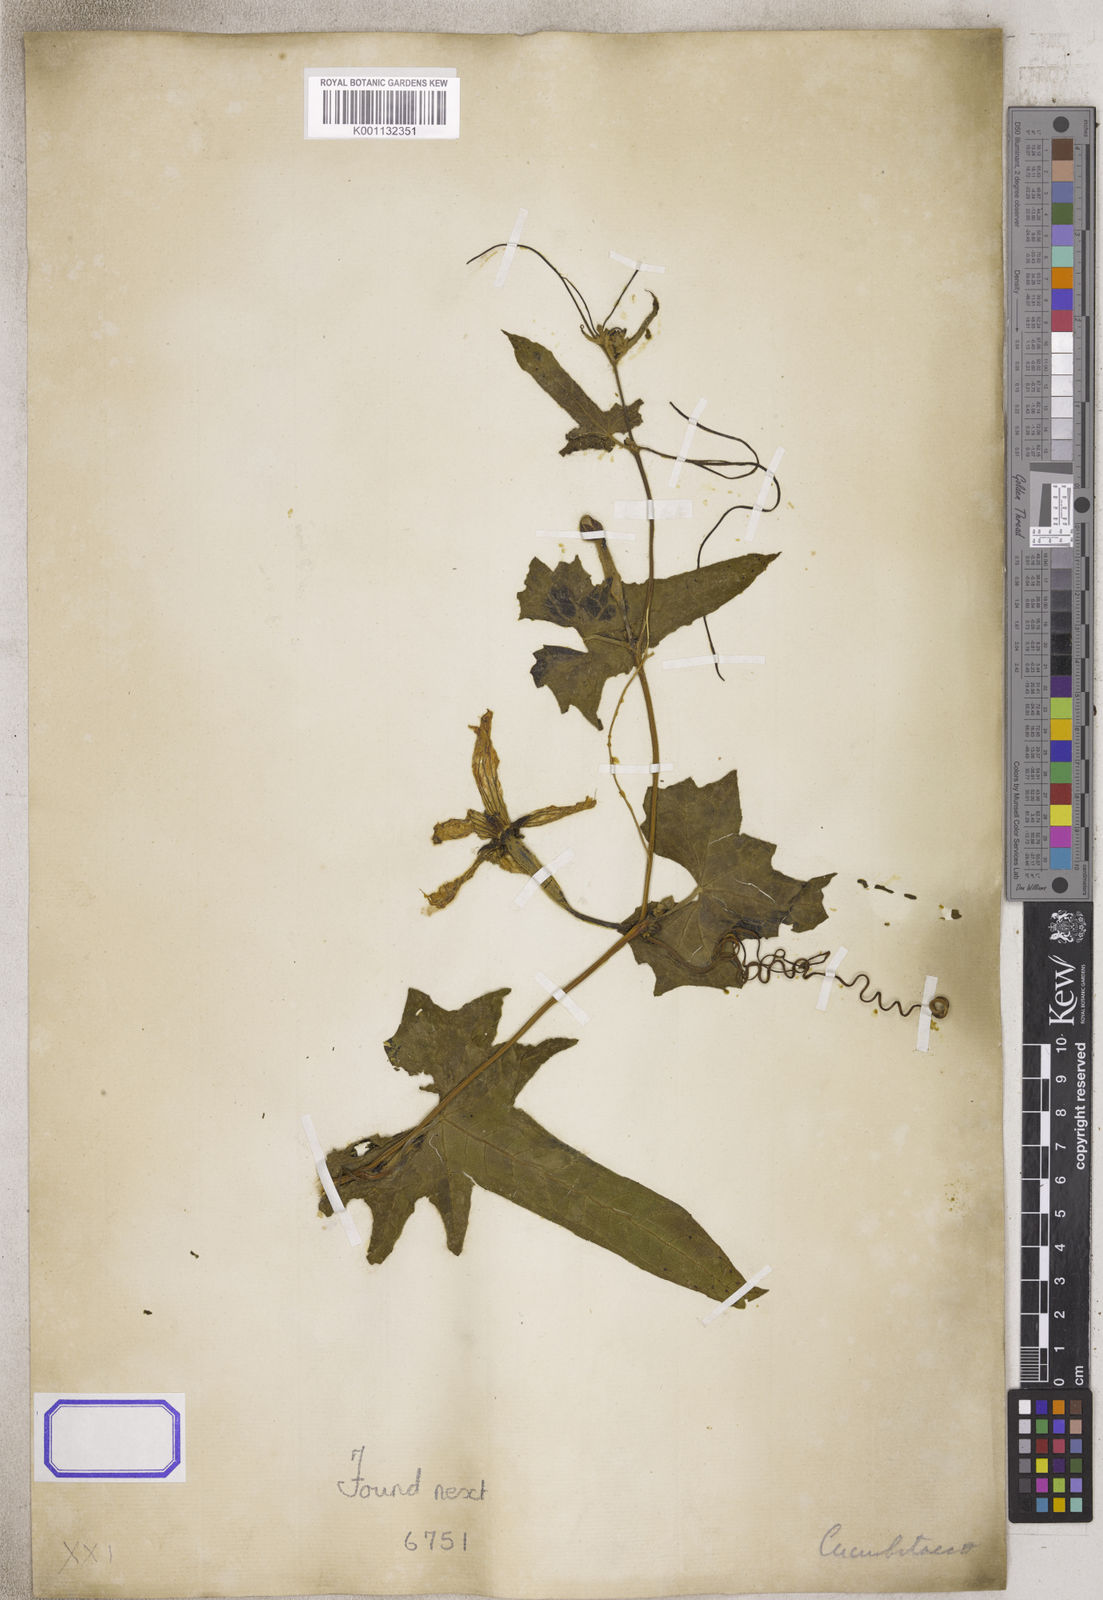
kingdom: Plantae
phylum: Tracheophyta
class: Magnoliopsida
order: Cucurbitales
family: Cucurbitaceae
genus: Luffa
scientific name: Luffa
